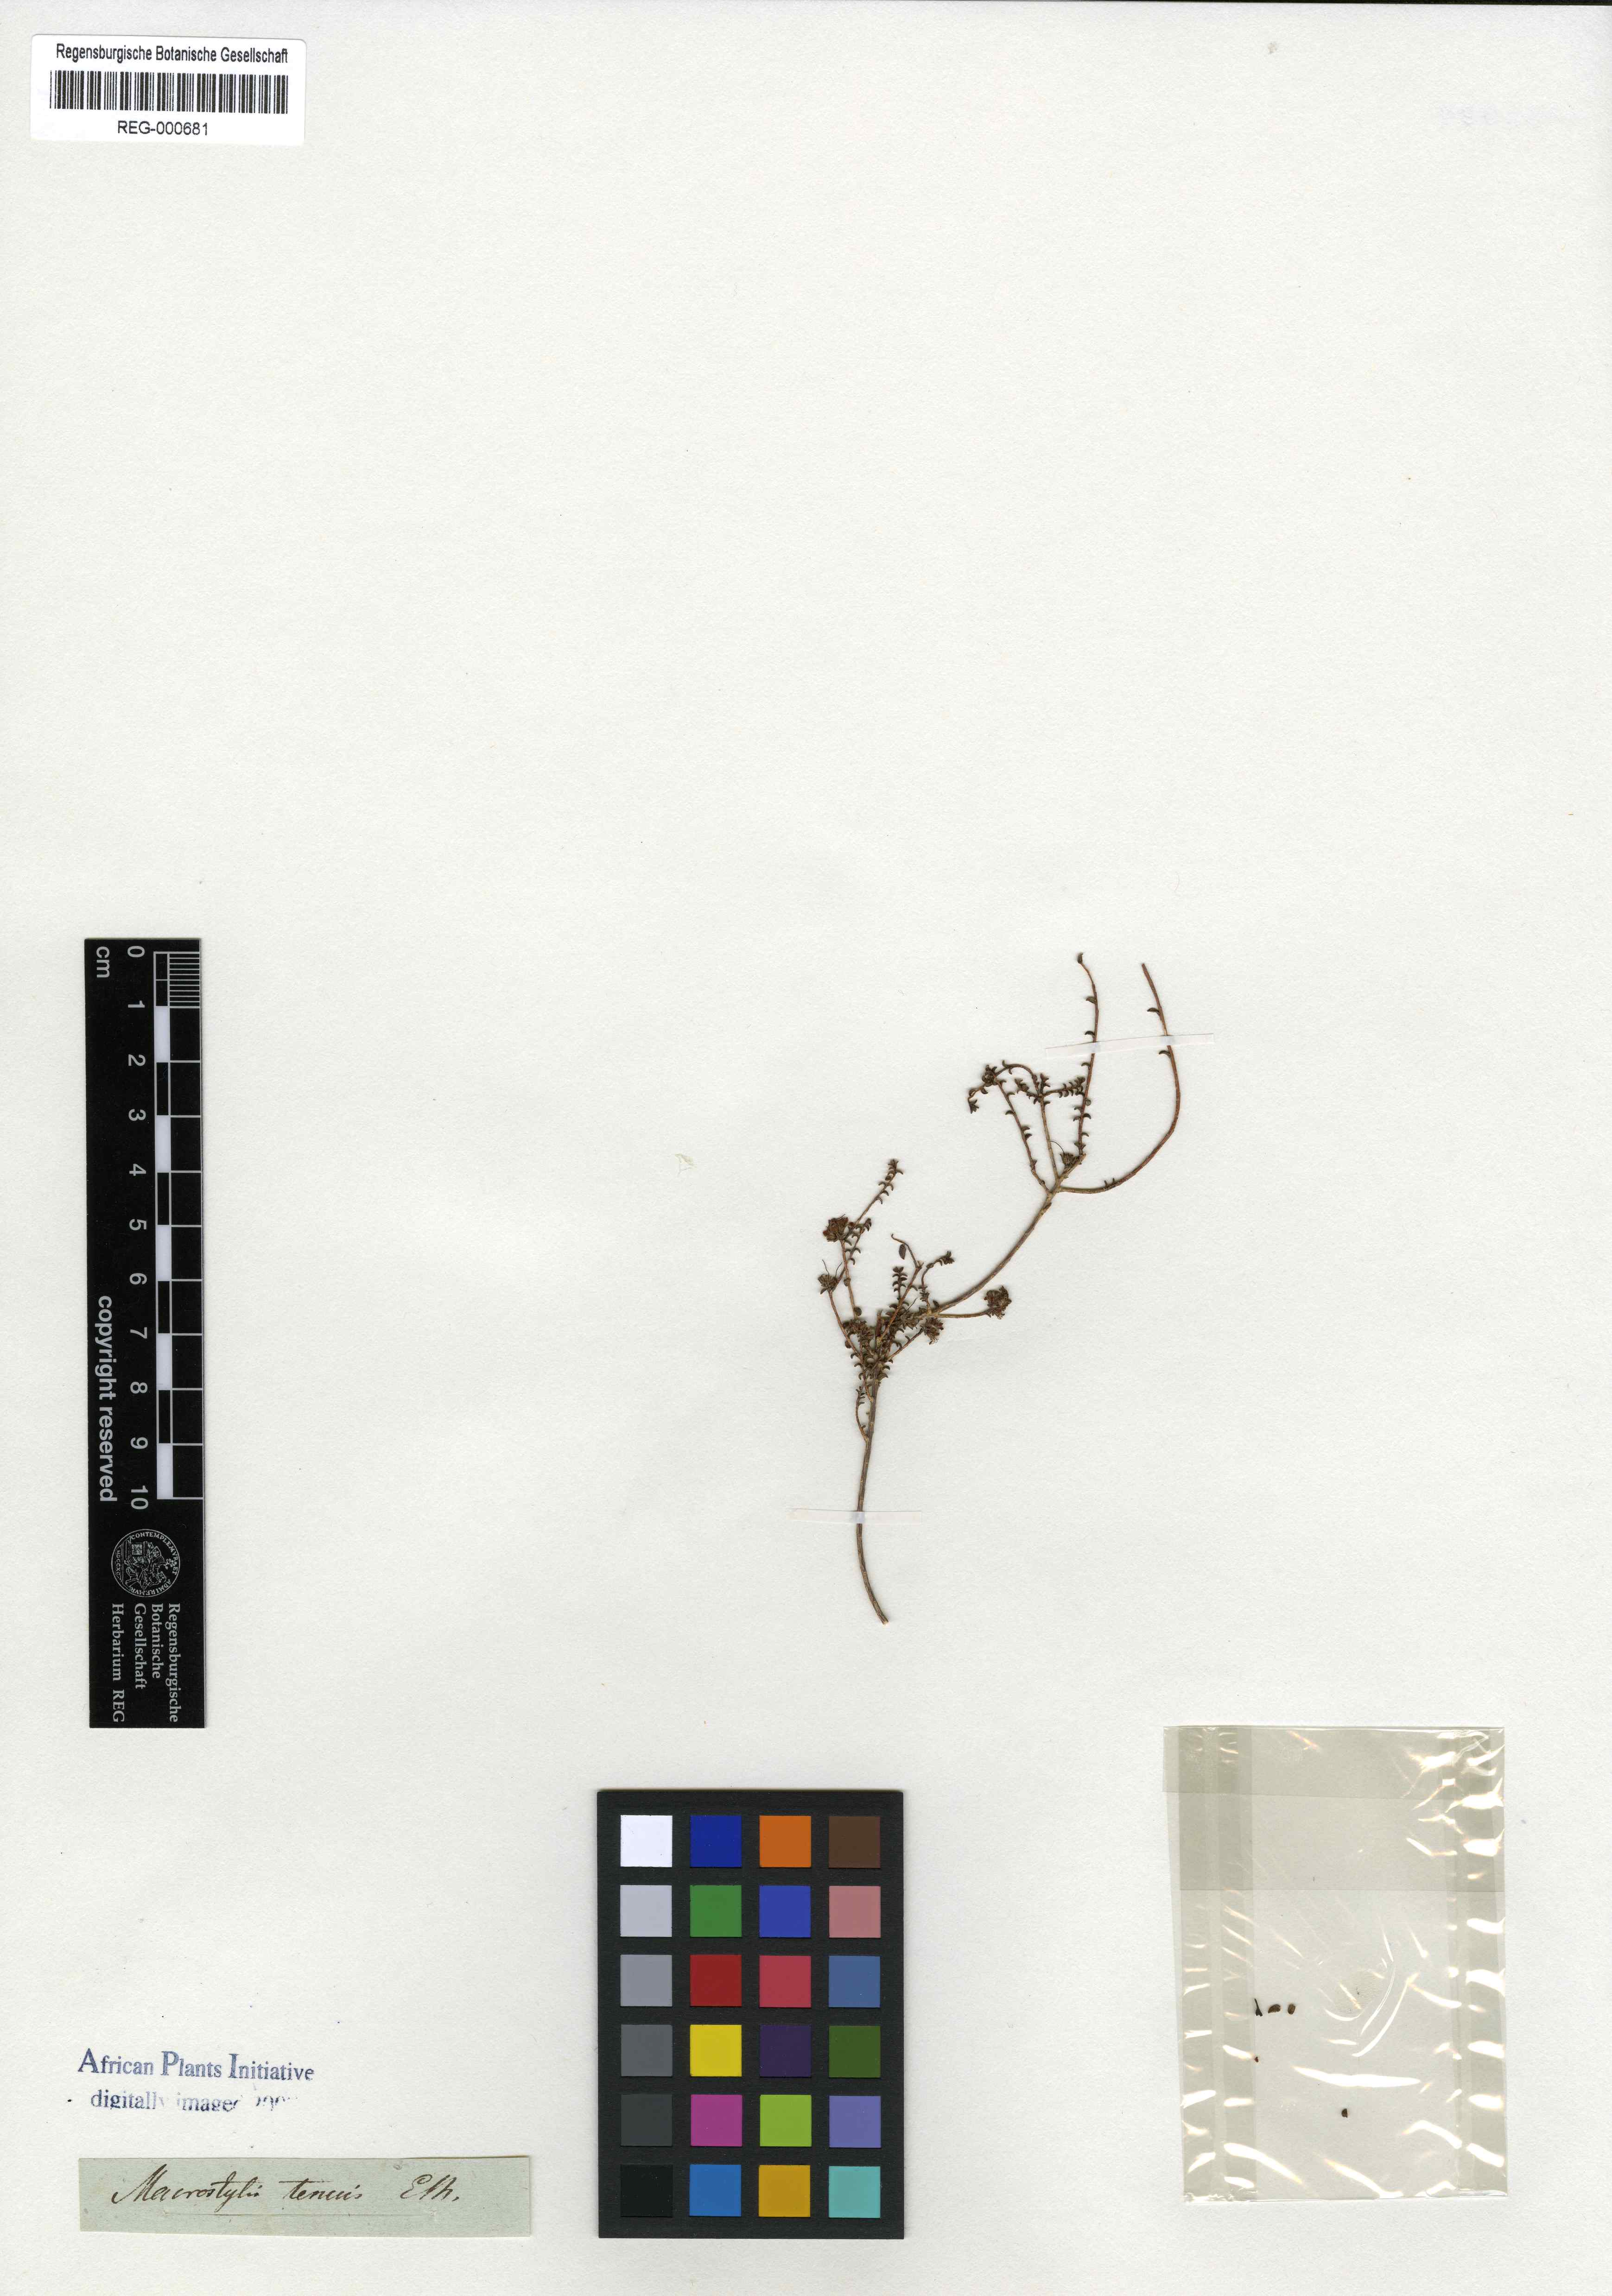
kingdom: Plantae
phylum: Tracheophyta
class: Magnoliopsida
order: Sapindales
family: Rutaceae
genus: Macrostylis
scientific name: Macrostylis tenuis
